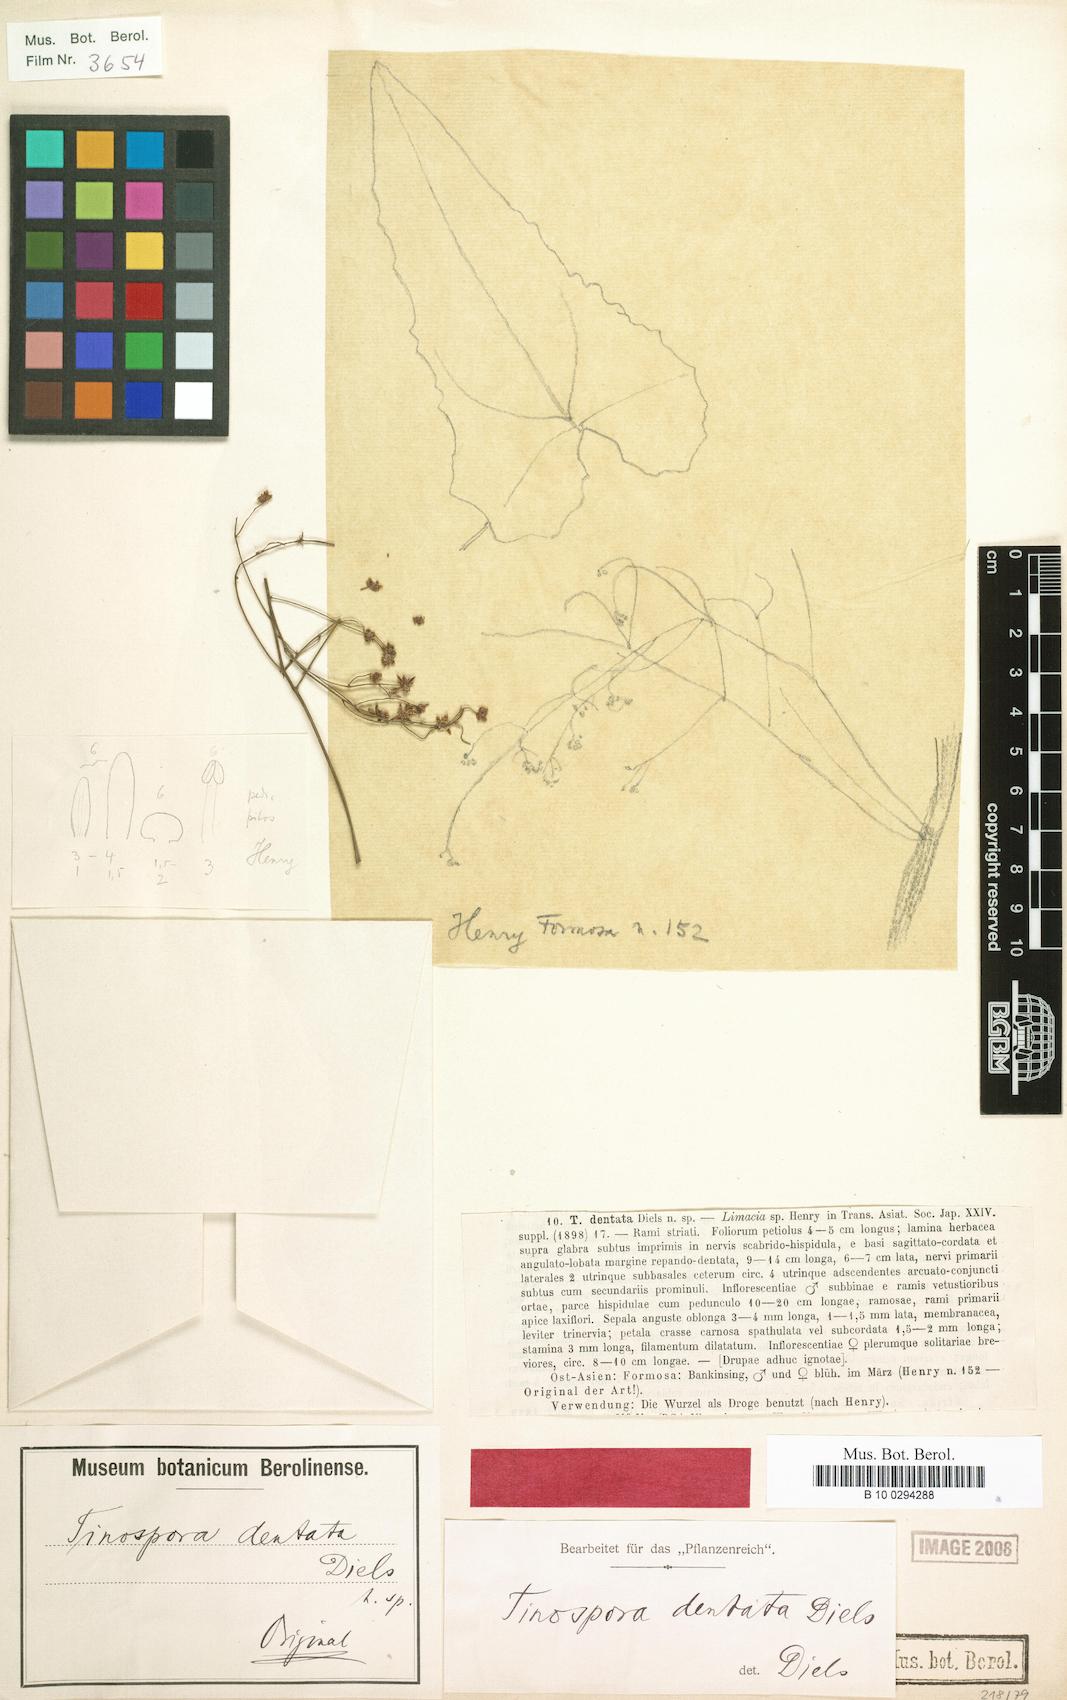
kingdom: Plantae
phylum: Tracheophyta
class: Magnoliopsida
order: Ranunculales
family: Menispermaceae
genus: Paratinospora
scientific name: Paratinospora dentata
